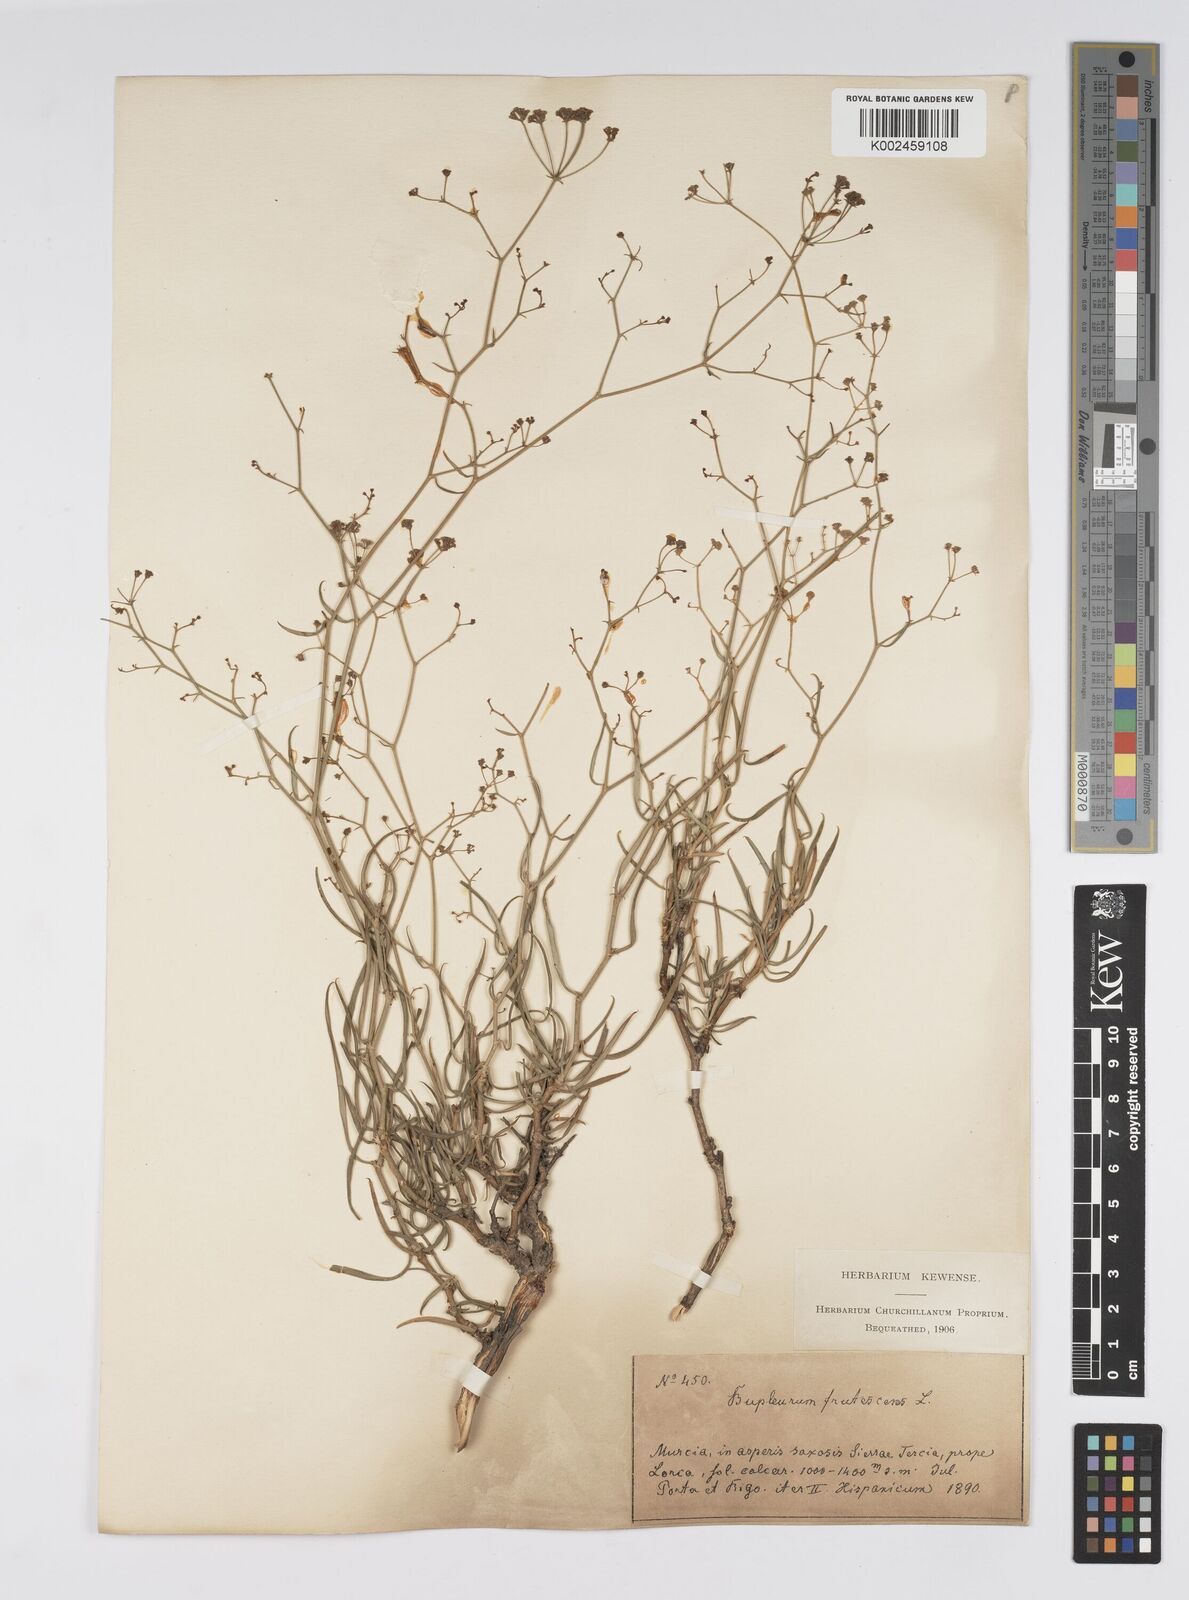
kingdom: Plantae
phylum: Tracheophyta
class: Magnoliopsida
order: Apiales
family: Apiaceae
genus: Bupleurum
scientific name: Bupleurum fruticescens
